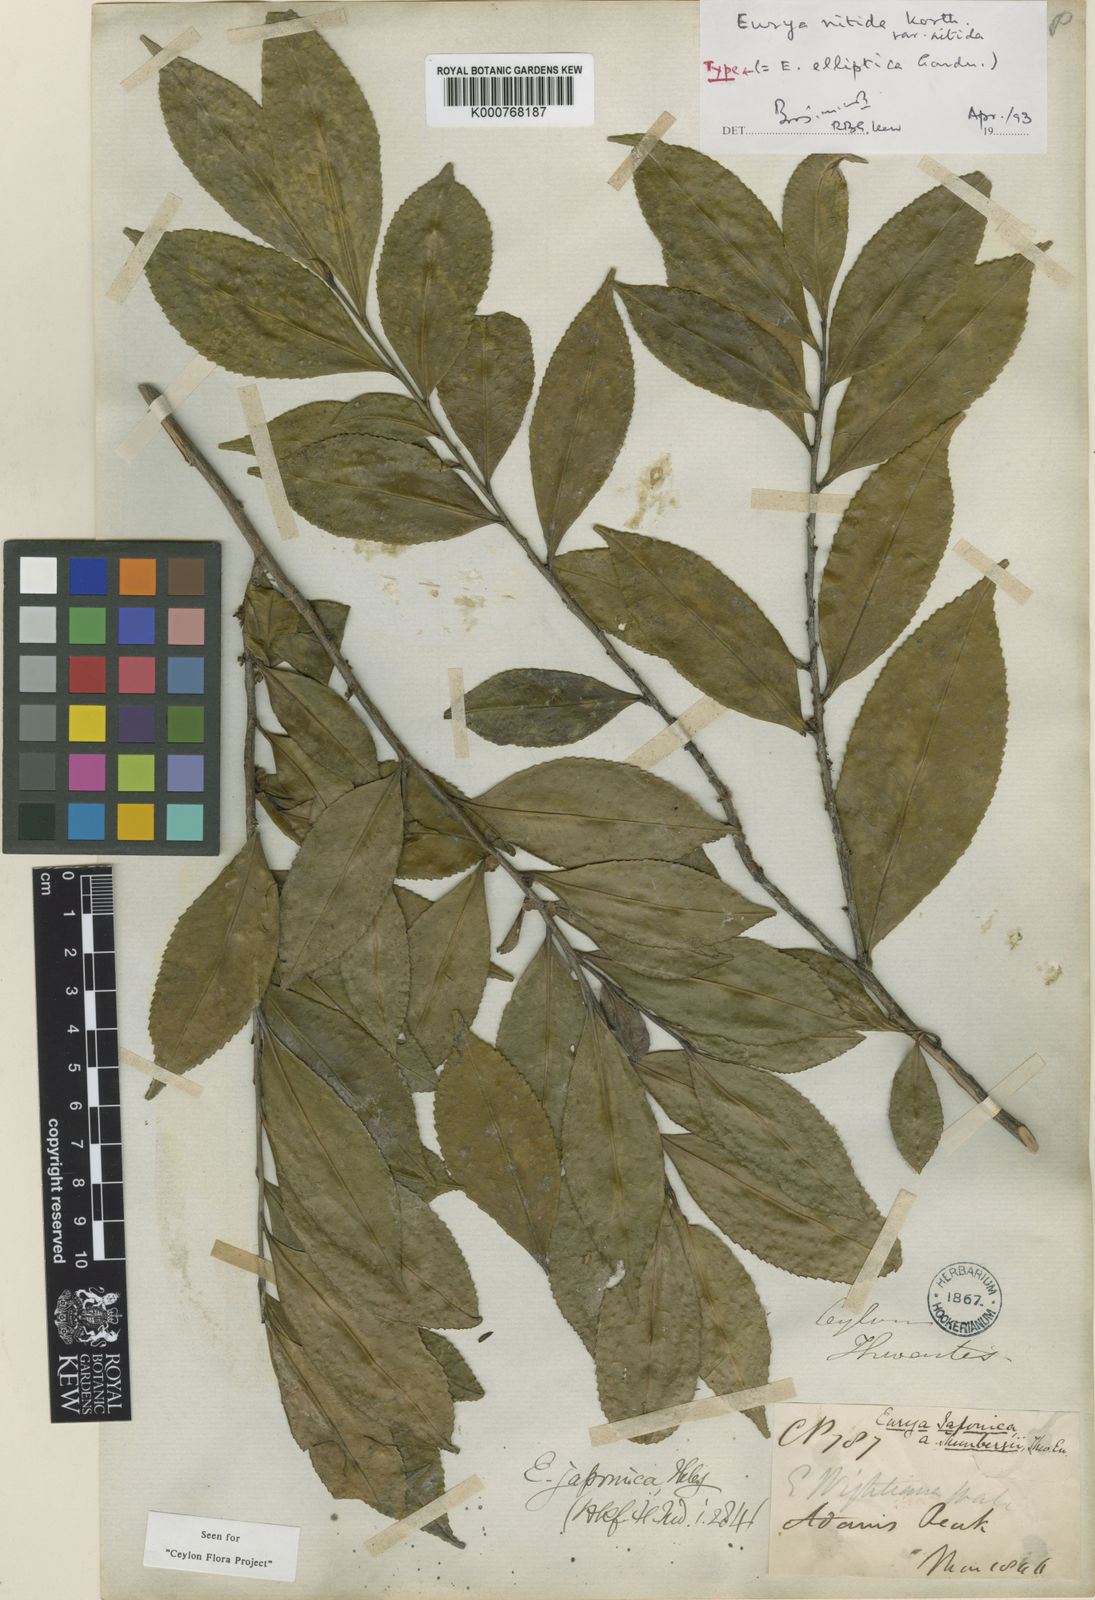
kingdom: Plantae
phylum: Tracheophyta
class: Magnoliopsida
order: Ericales
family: Pentaphylacaceae
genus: Eurya
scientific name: Eurya japonica
